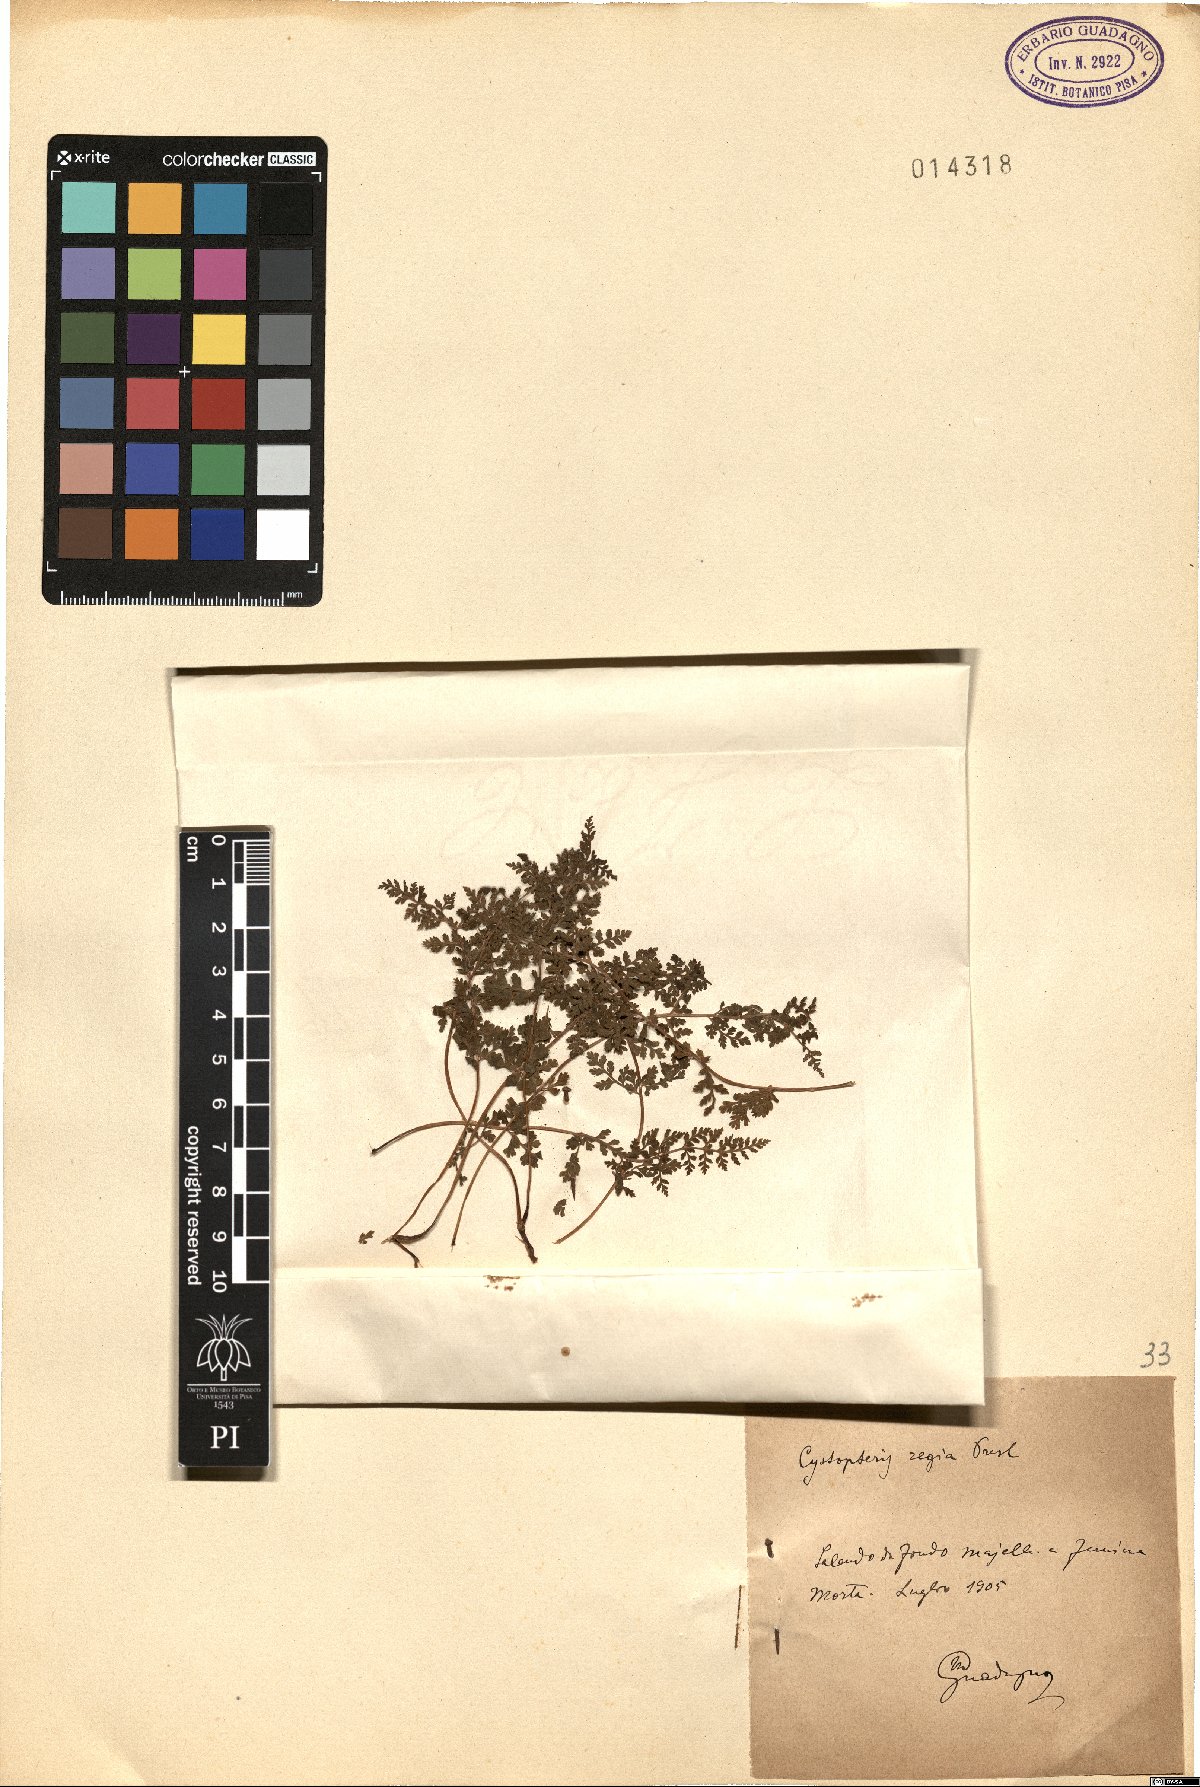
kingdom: Plantae
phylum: Tracheophyta
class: Polypodiopsida
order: Polypodiales
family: Cystopteridaceae
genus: Cystopteris
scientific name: Cystopteris alpina
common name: Alpine bladder-fern
